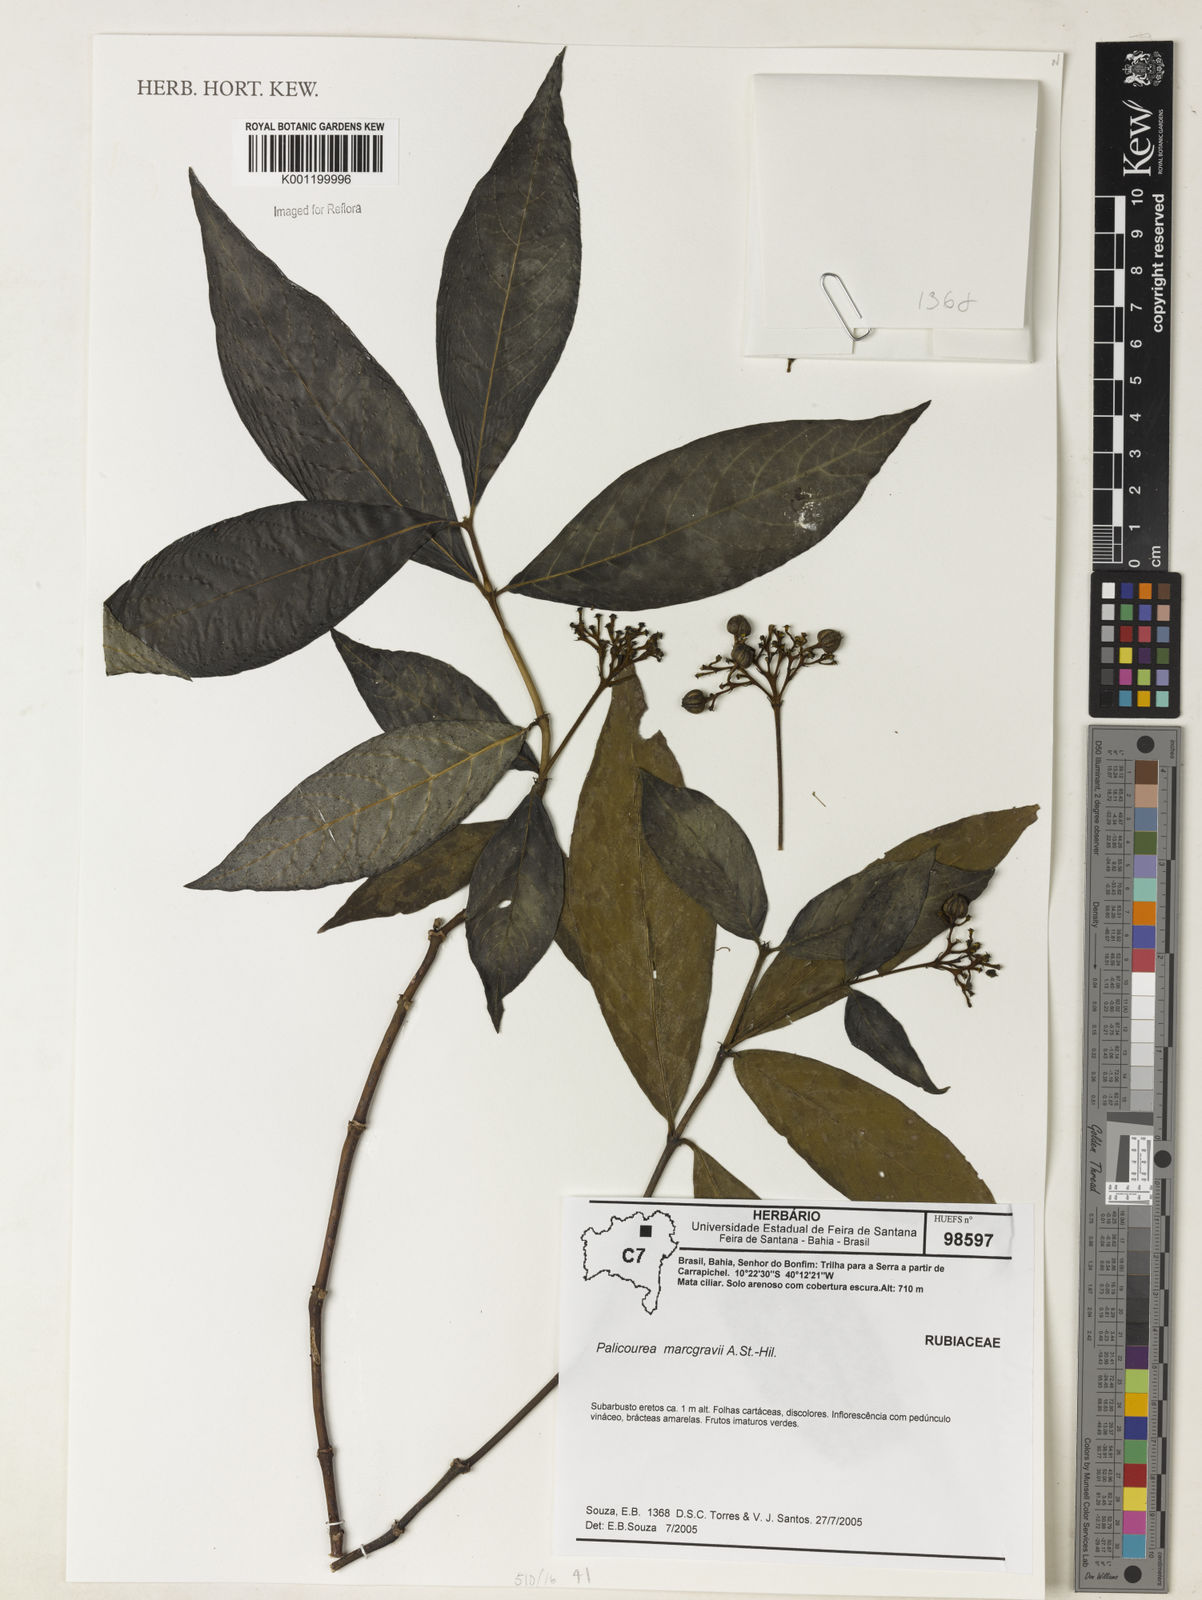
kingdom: Plantae
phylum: Tracheophyta
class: Magnoliopsida
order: Gentianales
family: Rubiaceae
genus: Palicourea
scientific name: Palicourea marcgravii
